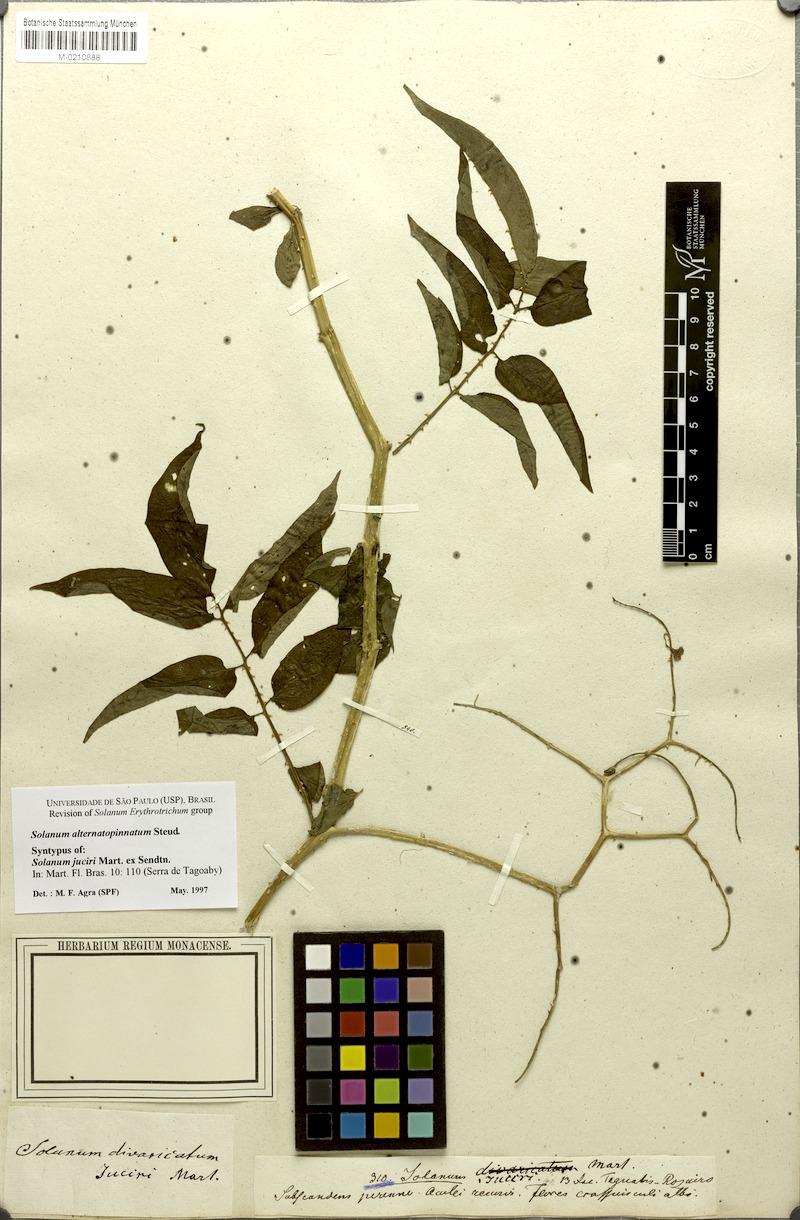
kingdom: Plantae
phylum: Tracheophyta
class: Magnoliopsida
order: Solanales
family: Solanaceae
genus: Solanum
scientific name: Solanum alternatopinnatum
